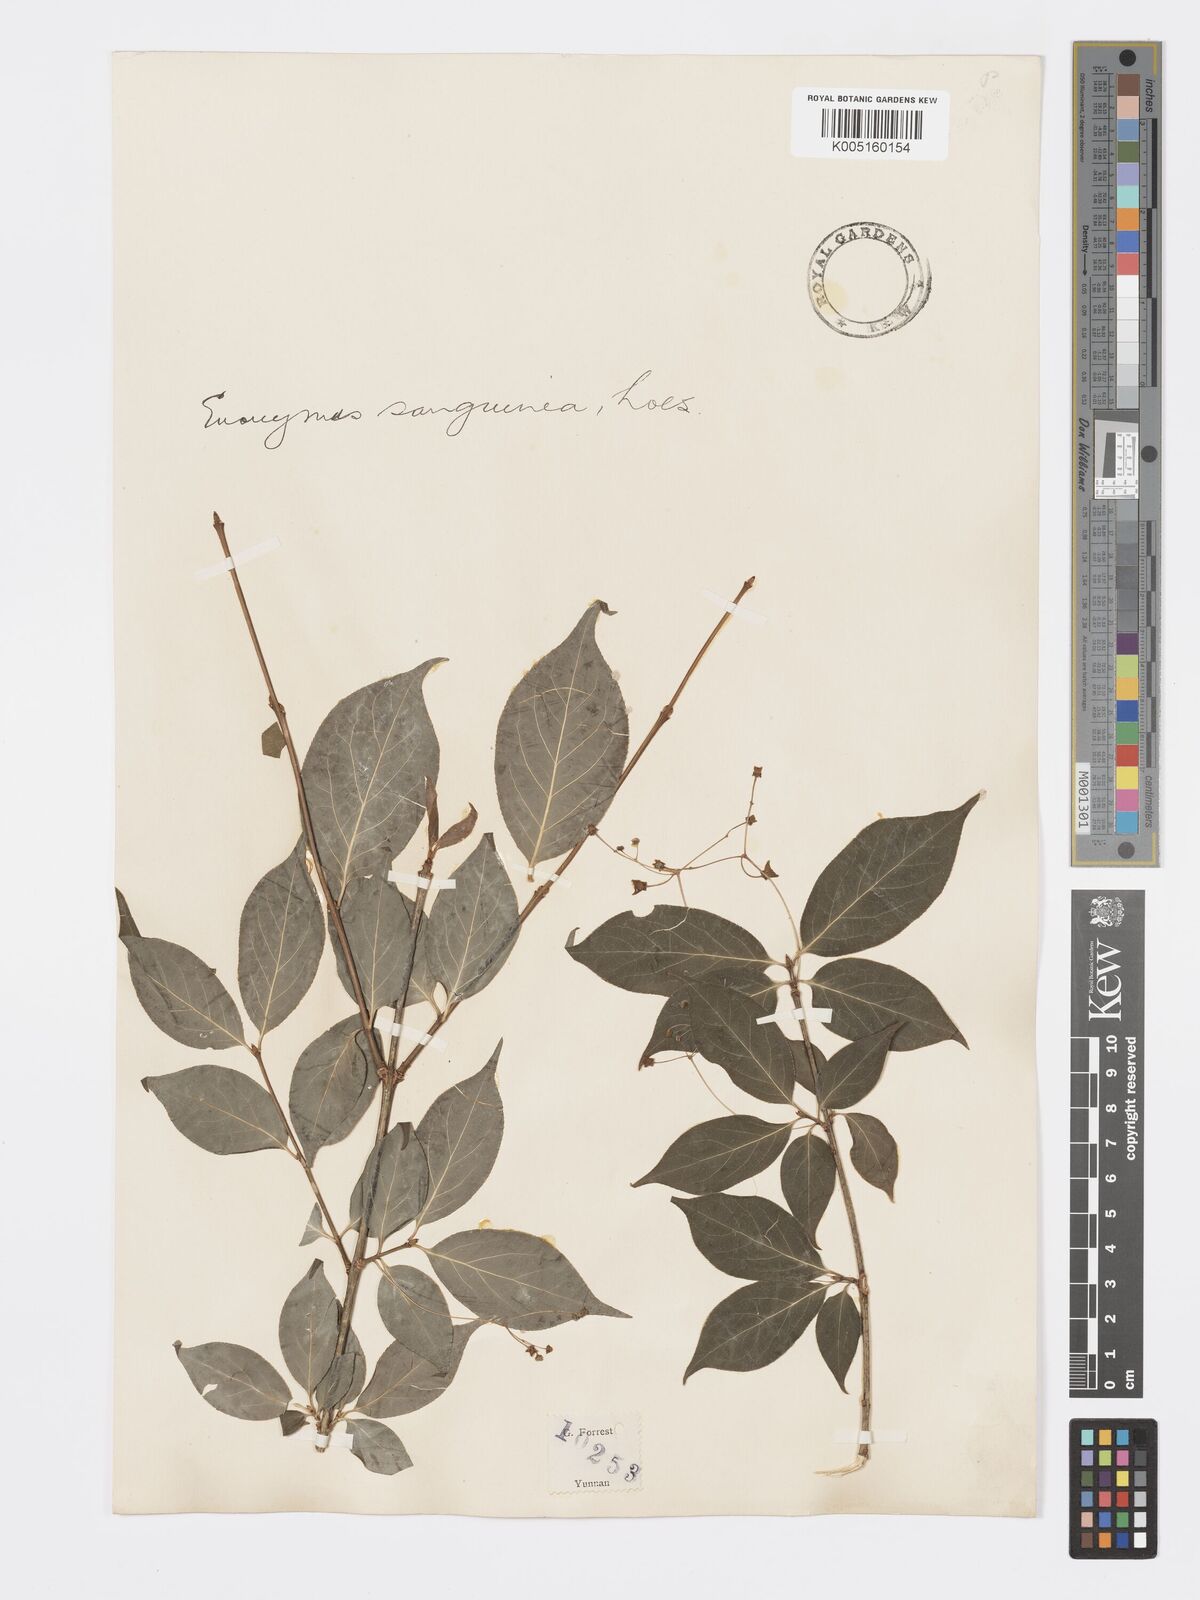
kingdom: Plantae
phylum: Tracheophyta
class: Magnoliopsida
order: Celastrales
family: Celastraceae
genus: Euonymus
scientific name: Euonymus frigidus
